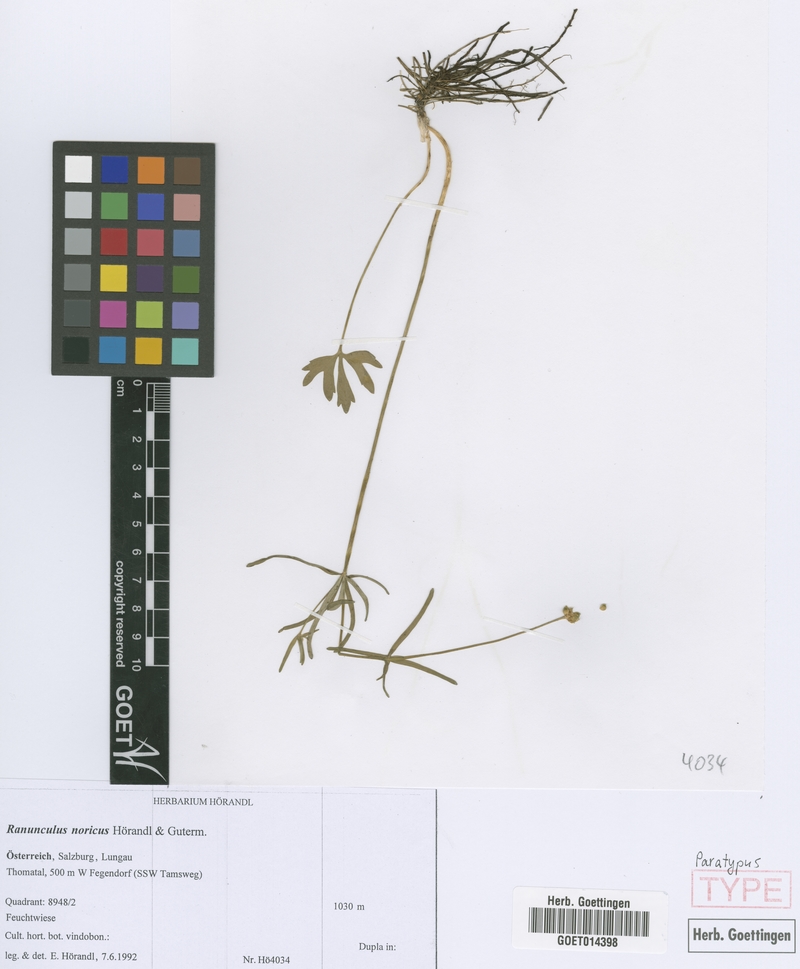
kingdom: Plantae
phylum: Tracheophyta
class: Magnoliopsida
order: Ranunculales
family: Ranunculaceae
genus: Ranunculus
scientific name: Ranunculus noricus
